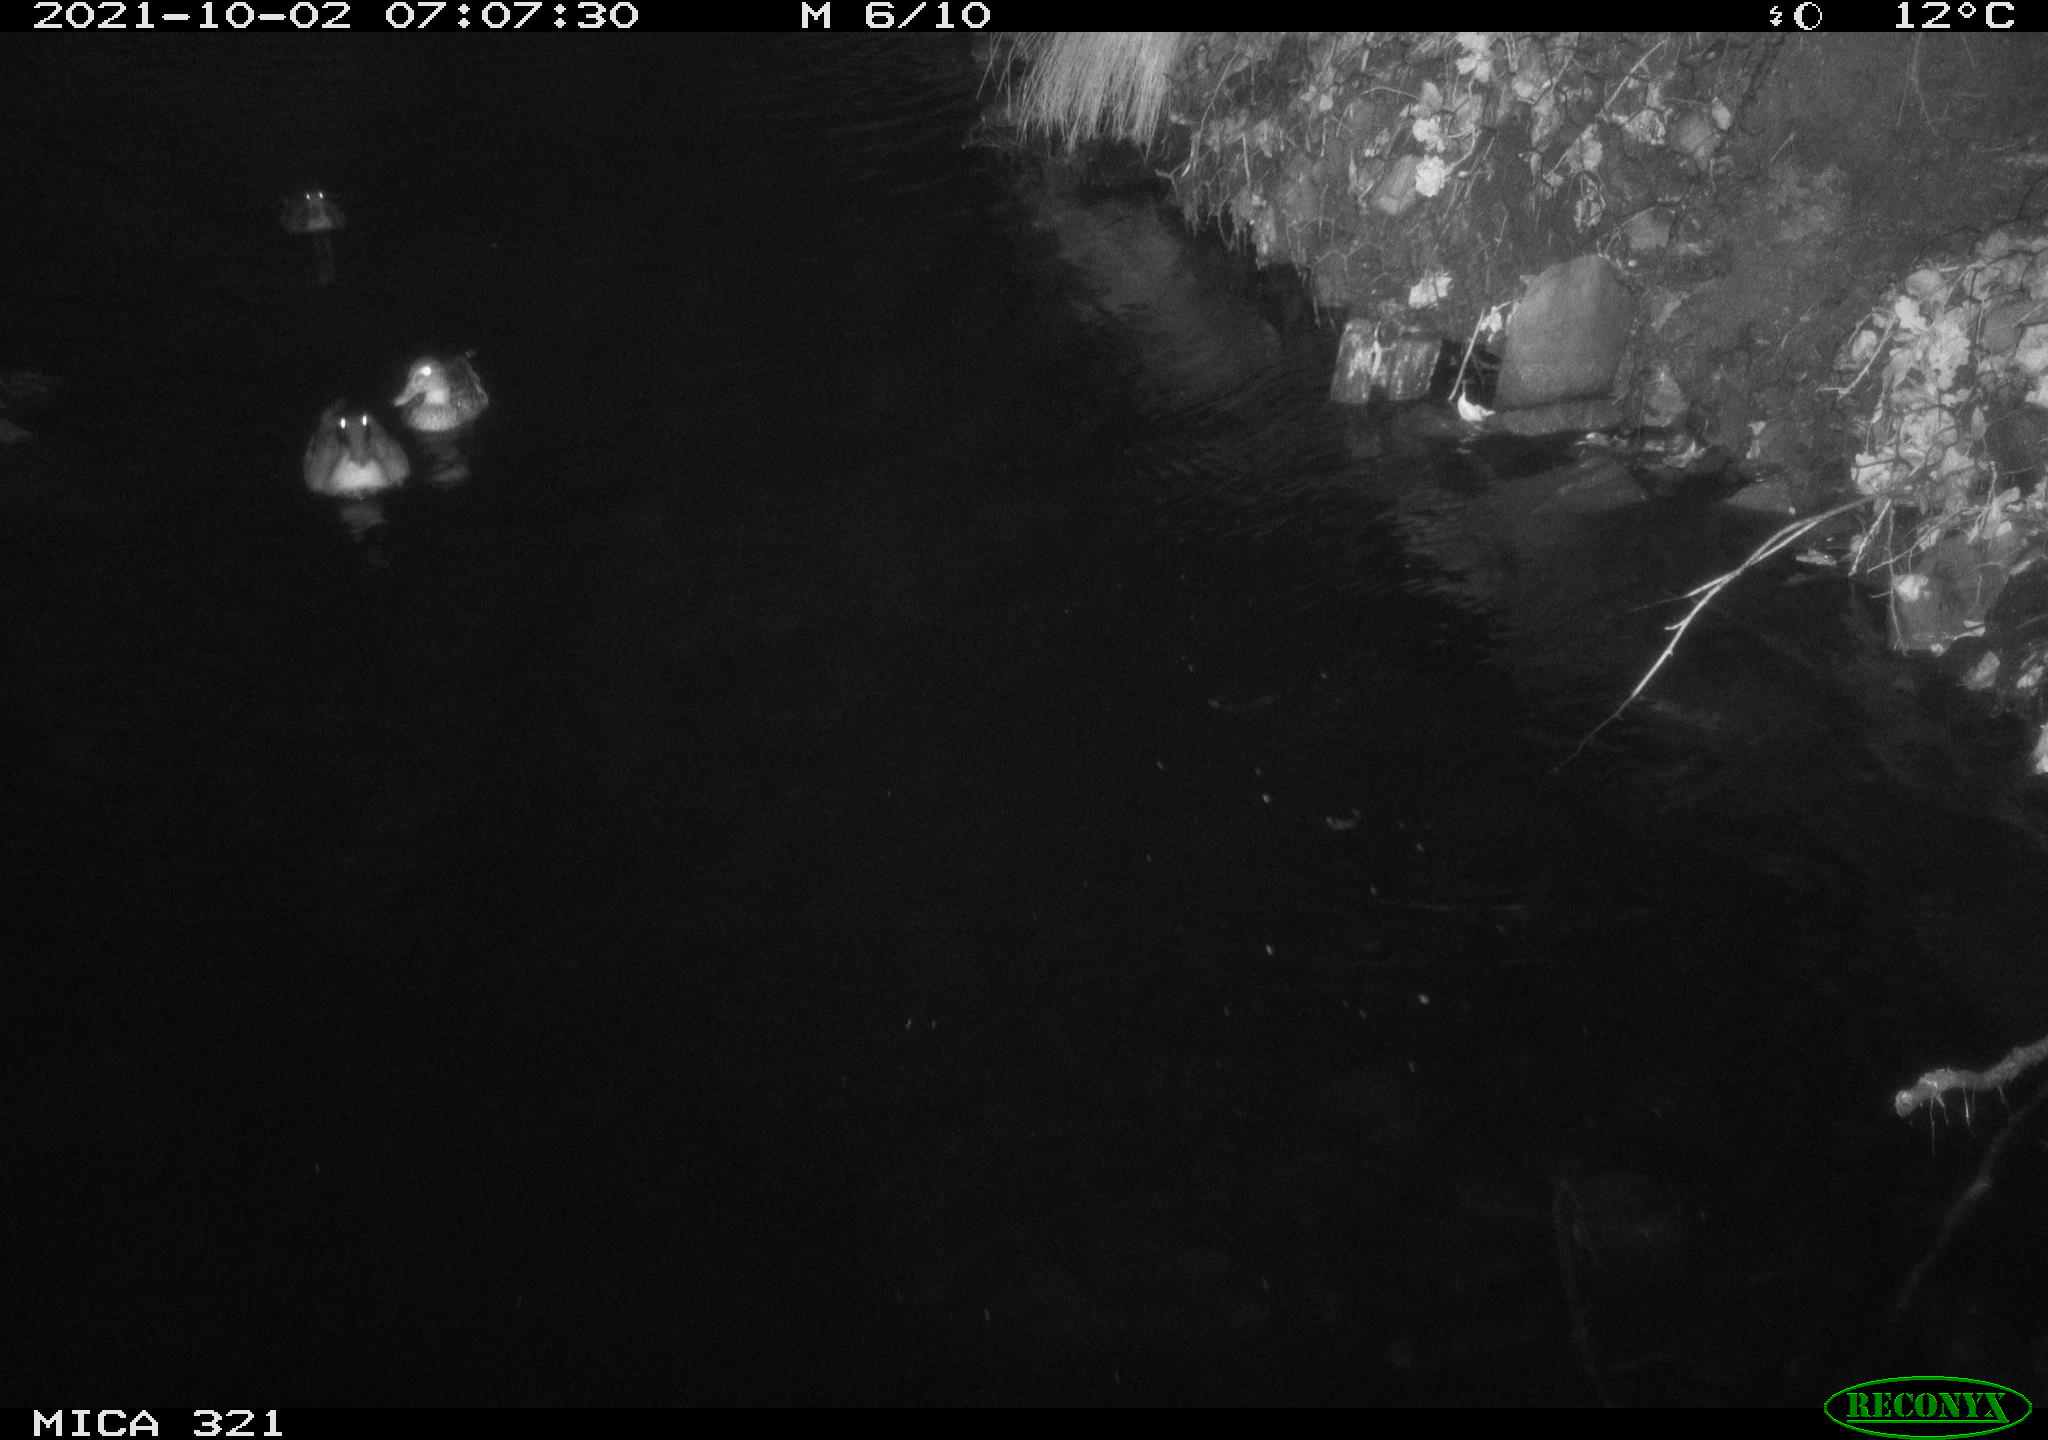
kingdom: Animalia
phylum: Chordata
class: Aves
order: Anseriformes
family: Anatidae
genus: Anas
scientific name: Anas platyrhynchos
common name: Mallard
